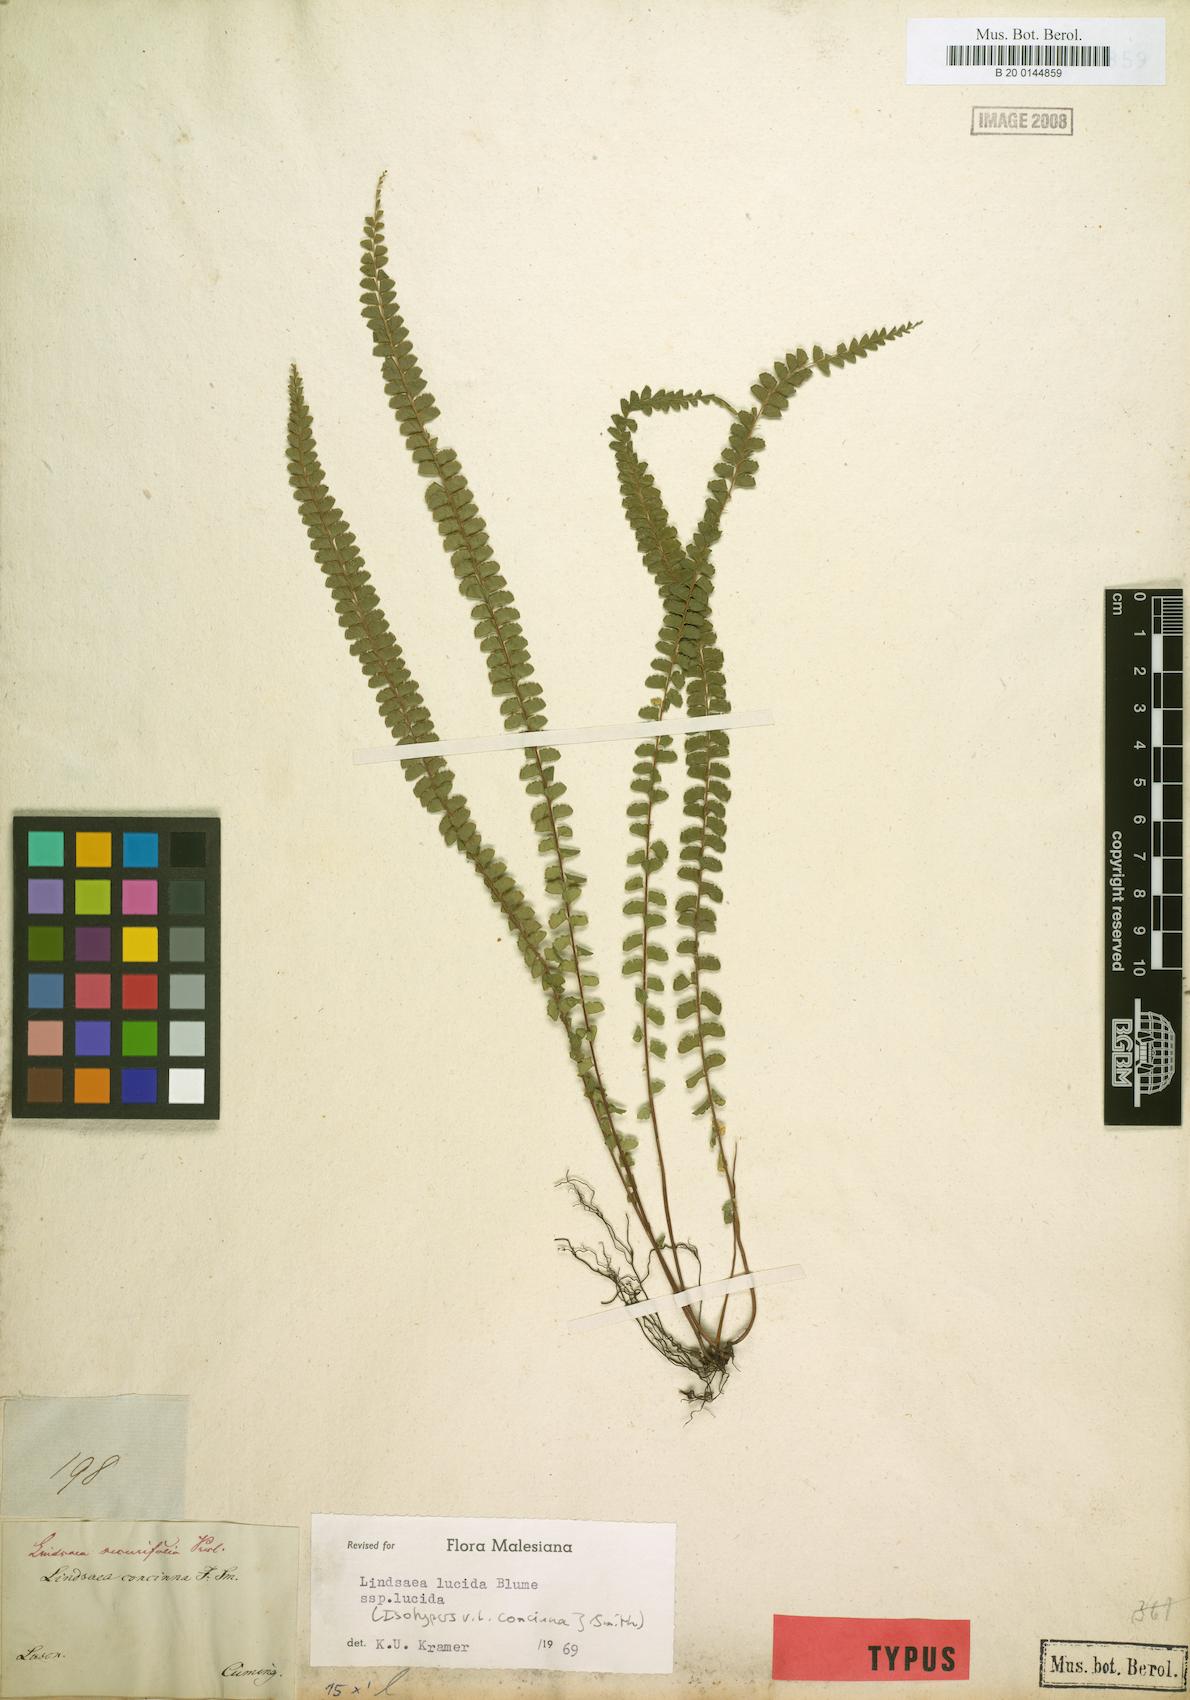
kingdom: Plantae
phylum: Tracheophyta
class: Polypodiopsida
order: Polypodiales
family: Lindsaeaceae
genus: Lindsaea
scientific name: Lindsaea lucida
